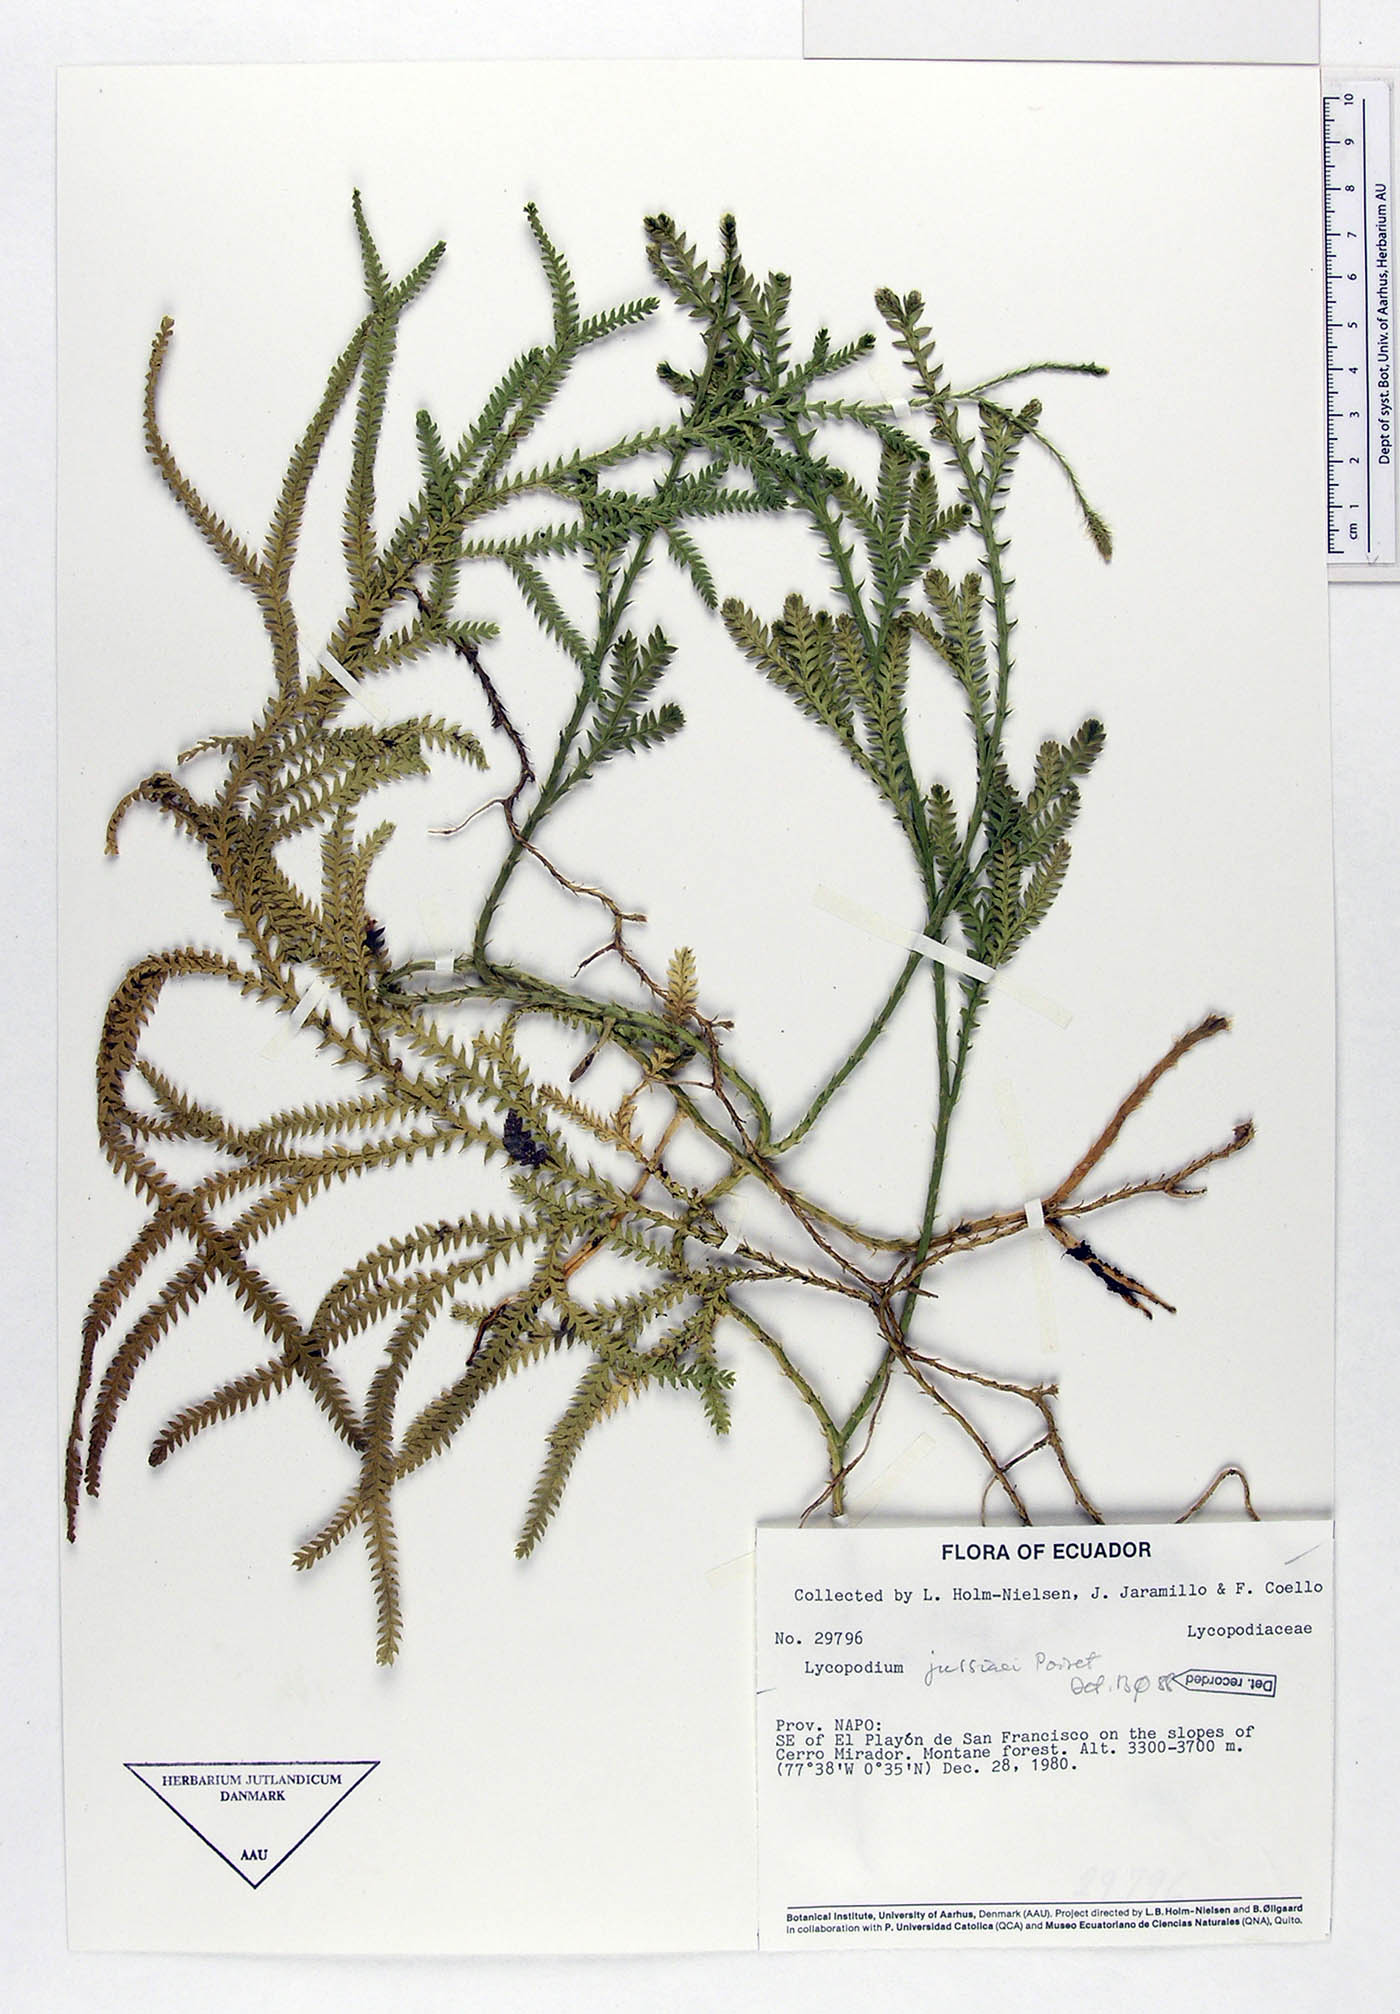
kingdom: Plantae
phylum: Tracheophyta
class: Lycopodiopsida
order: Lycopodiales
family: Lycopodiaceae
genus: Diphasium
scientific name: Diphasium jussiaei
